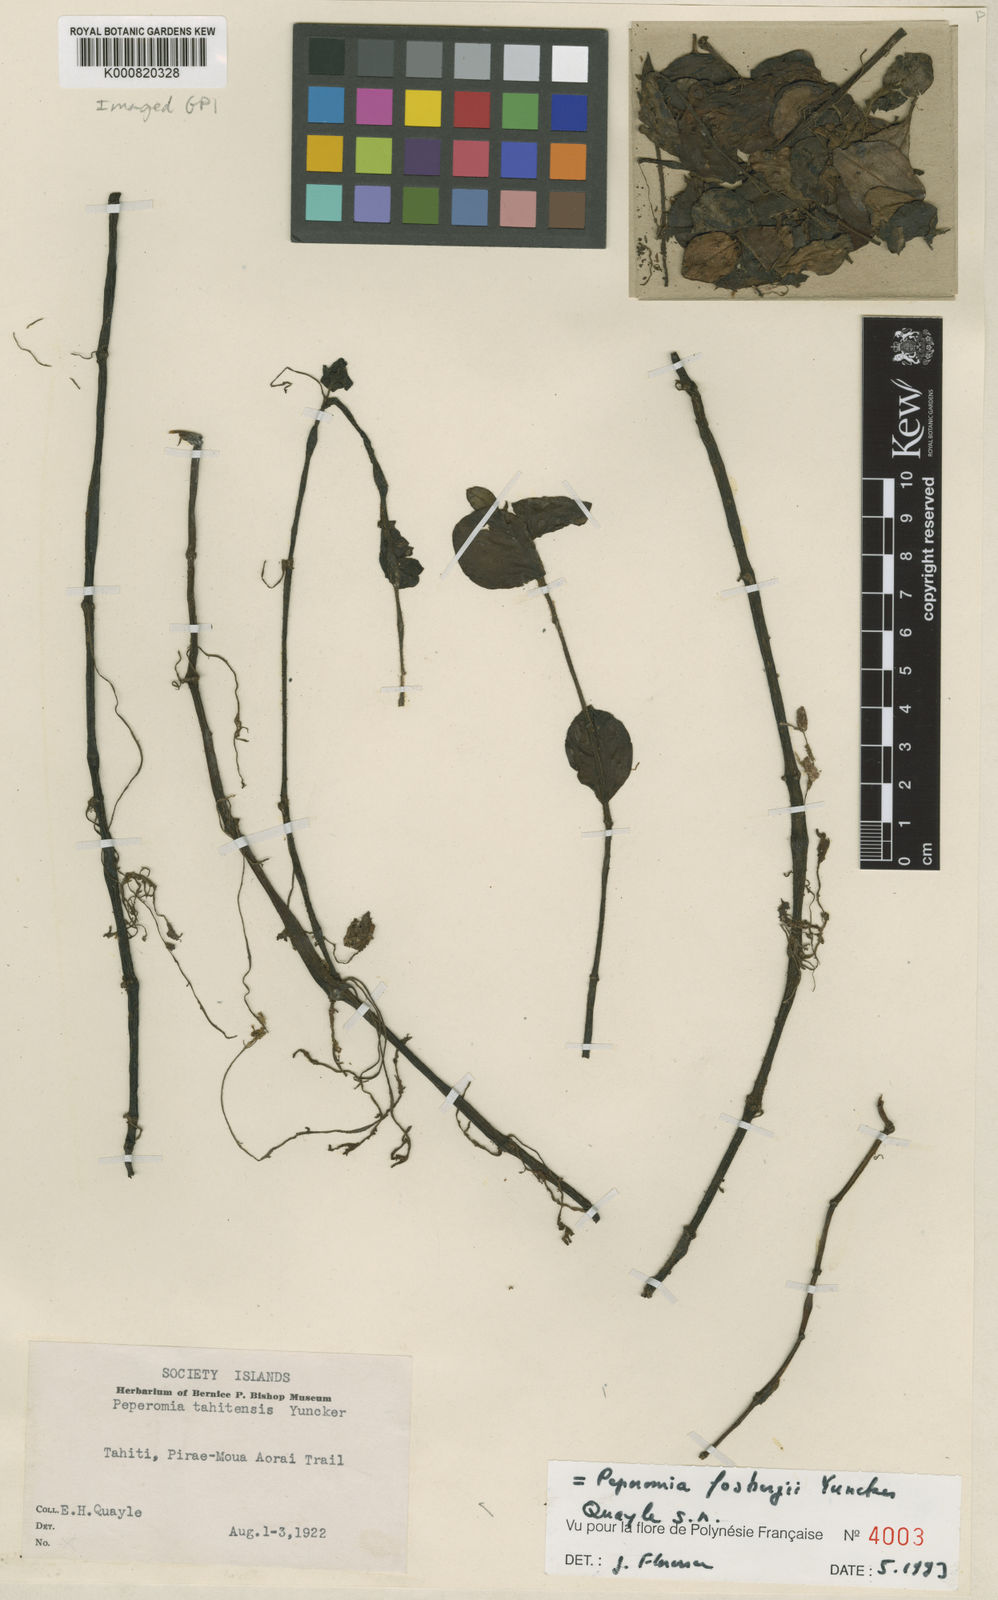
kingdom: Plantae
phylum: Tracheophyta
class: Magnoliopsida
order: Piperales
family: Piperaceae
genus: Peperomia
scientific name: Peperomia fosbergii
